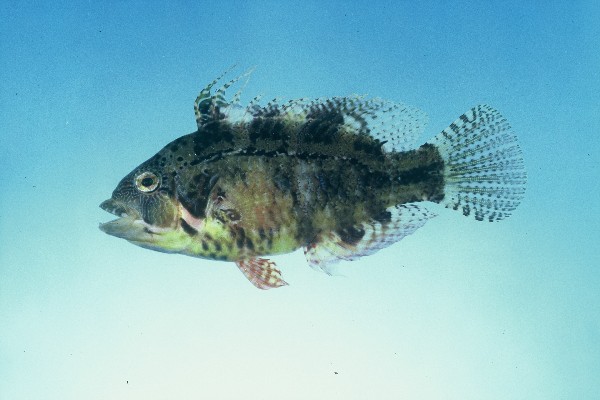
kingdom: Animalia
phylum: Chordata
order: Perciformes
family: Labridae
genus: Pteragogus
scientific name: Pteragogus flagellifer
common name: Cocktail wrasse
